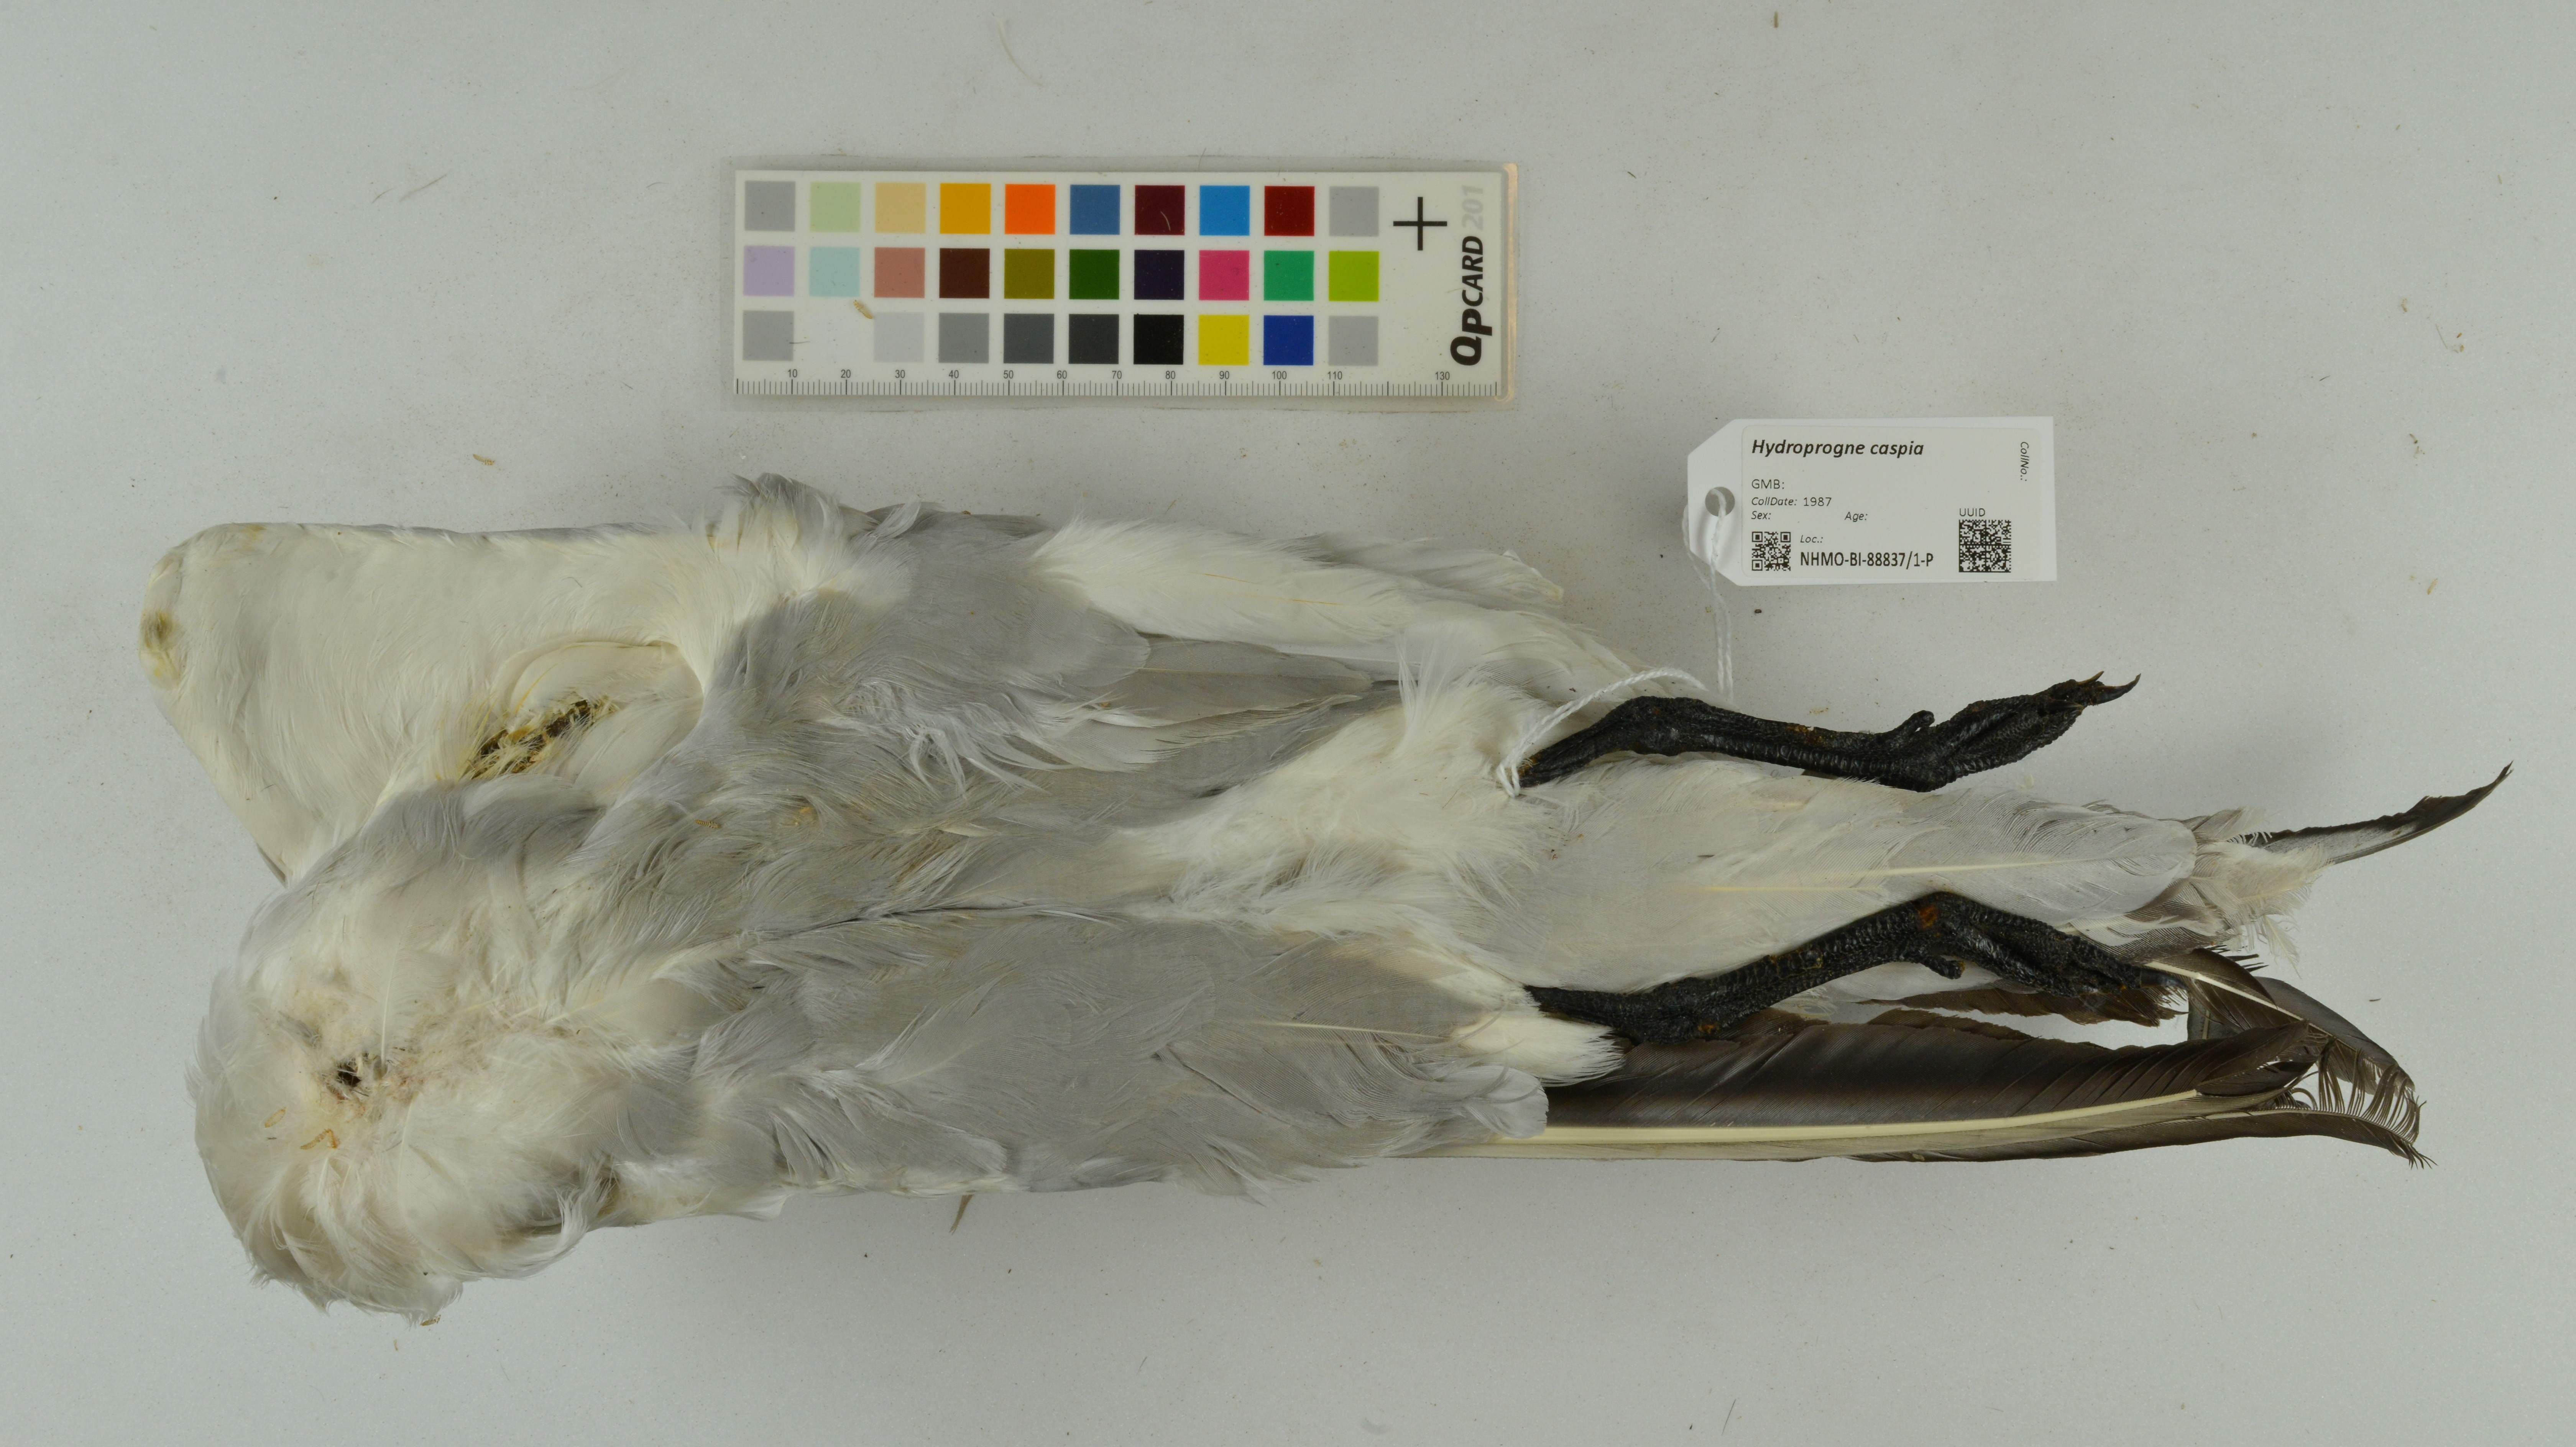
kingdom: Animalia
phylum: Chordata
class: Aves
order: Charadriiformes
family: Laridae
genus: Hydroprogne
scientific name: Hydroprogne caspia
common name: Caspian tern
